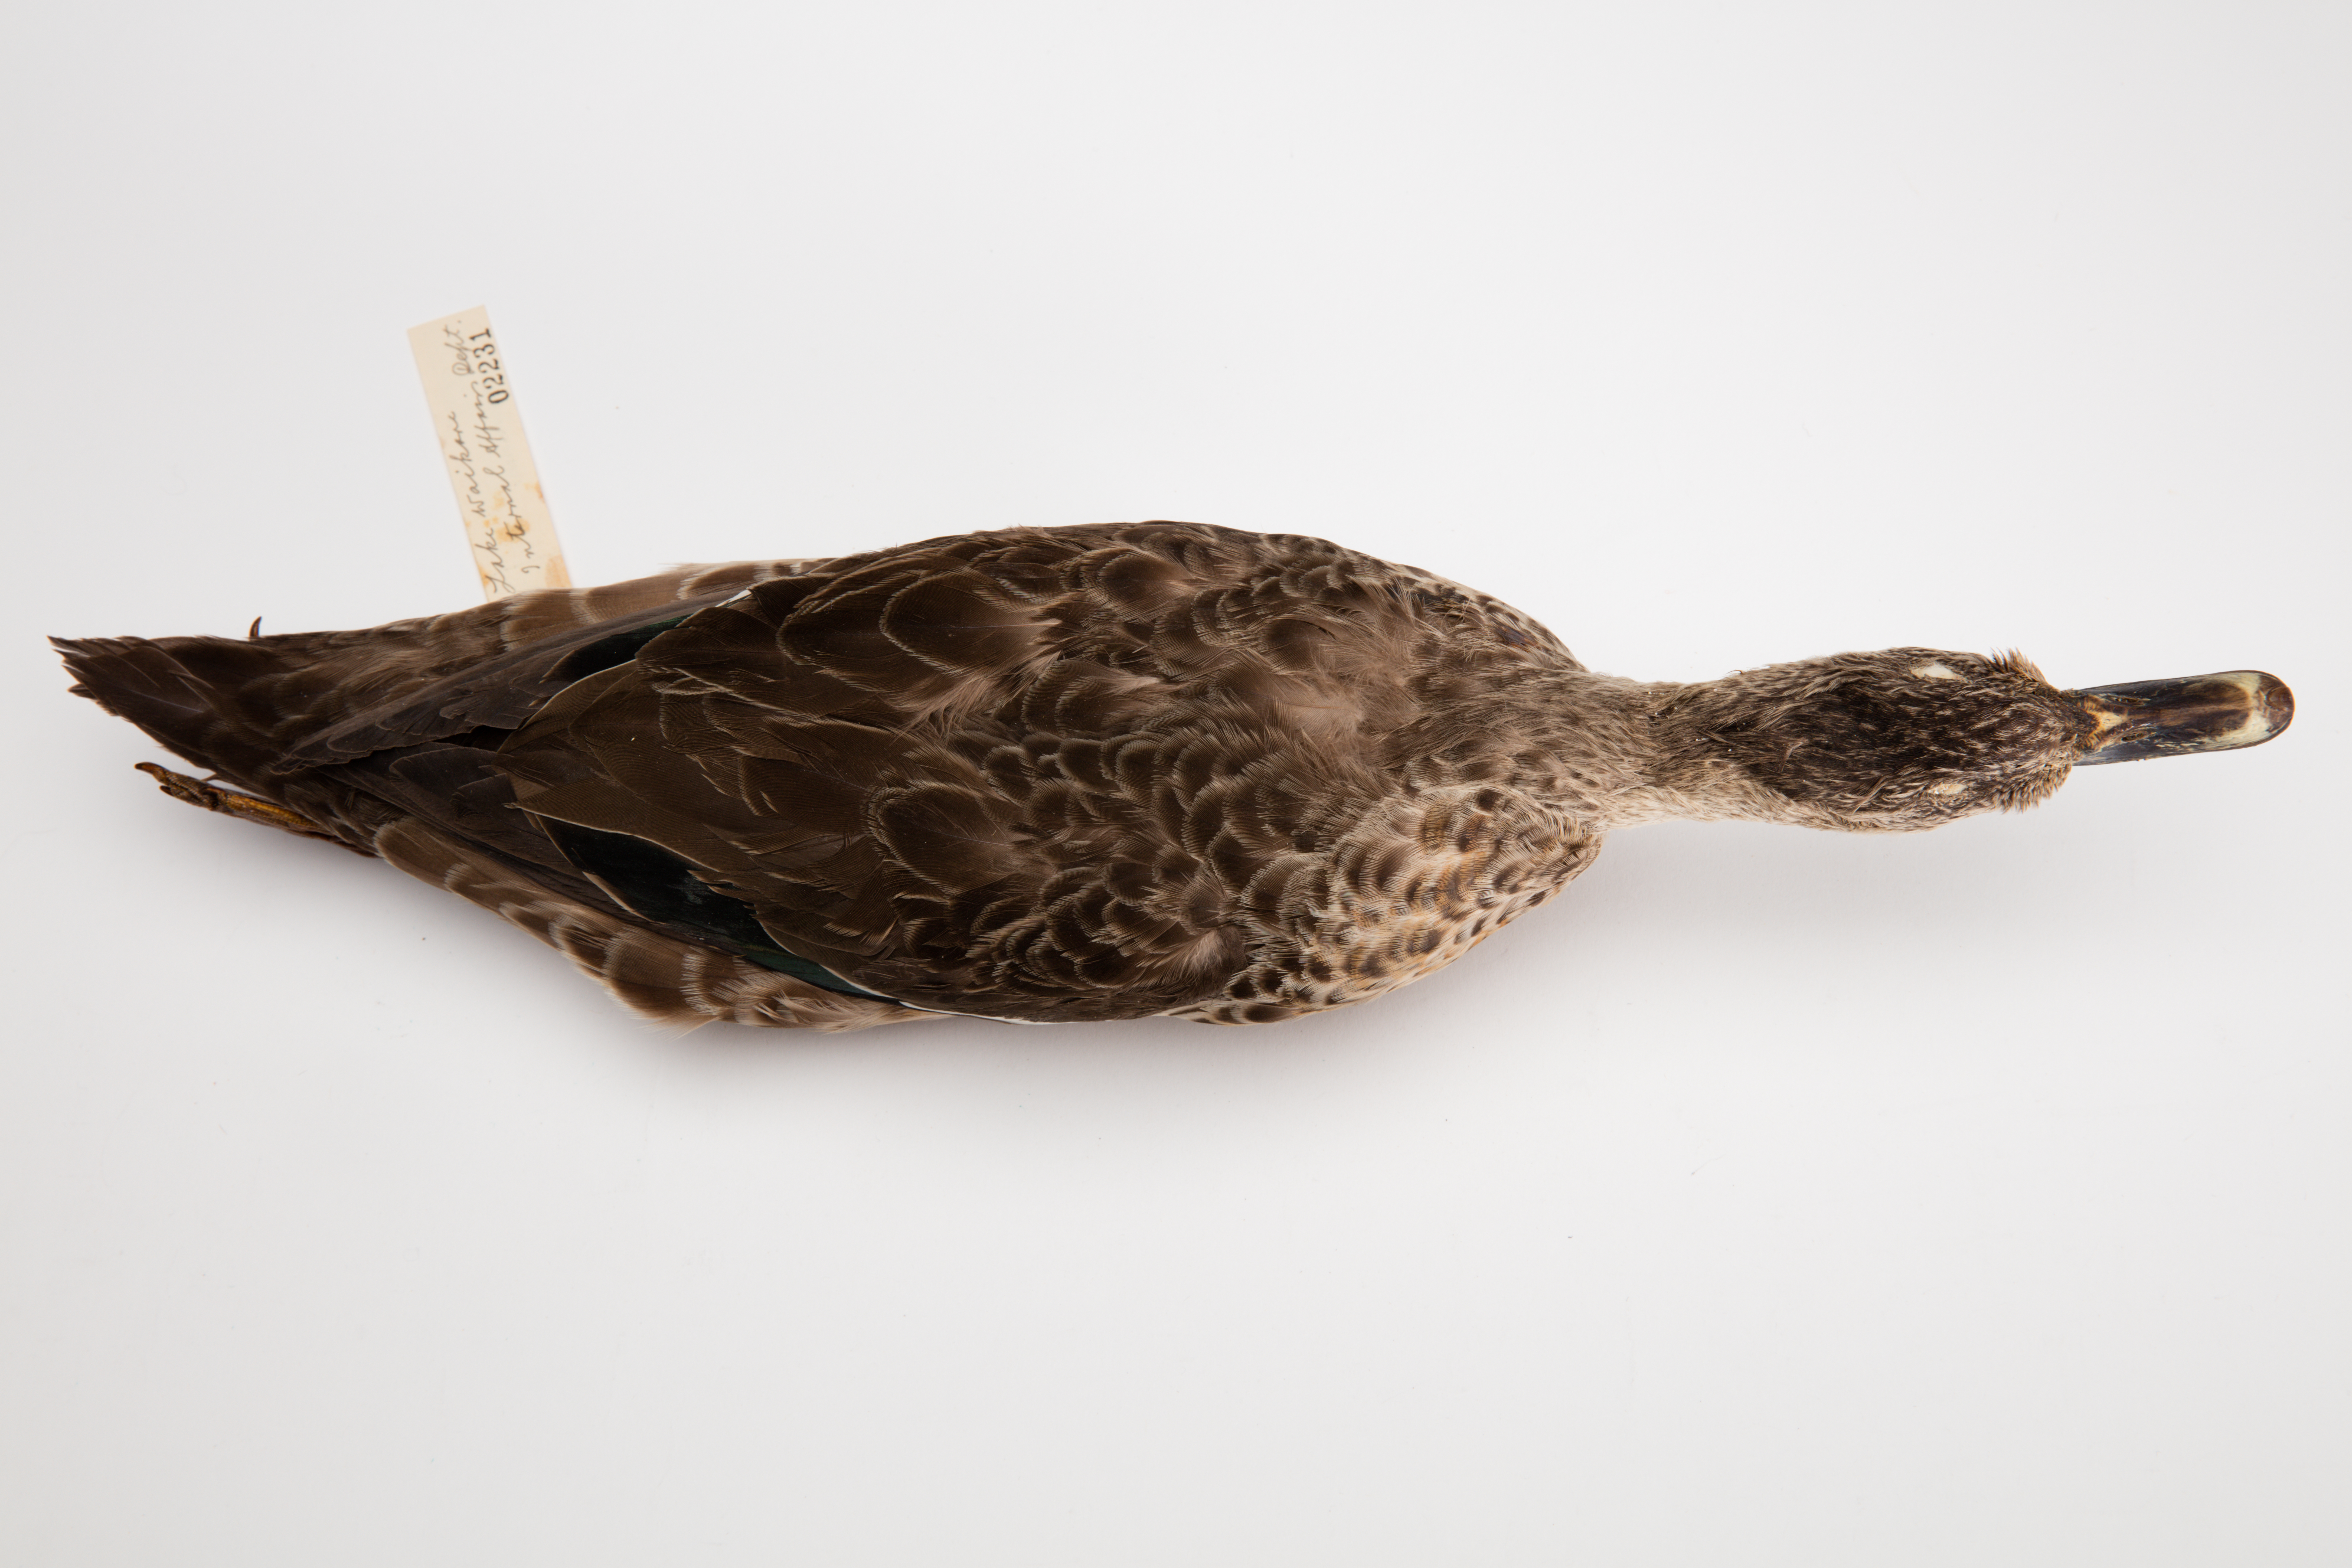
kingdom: Animalia
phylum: Chordata
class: Aves
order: Anseriformes
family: Anatidae
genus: Anas
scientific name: Anas gracilis
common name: Grey teal
